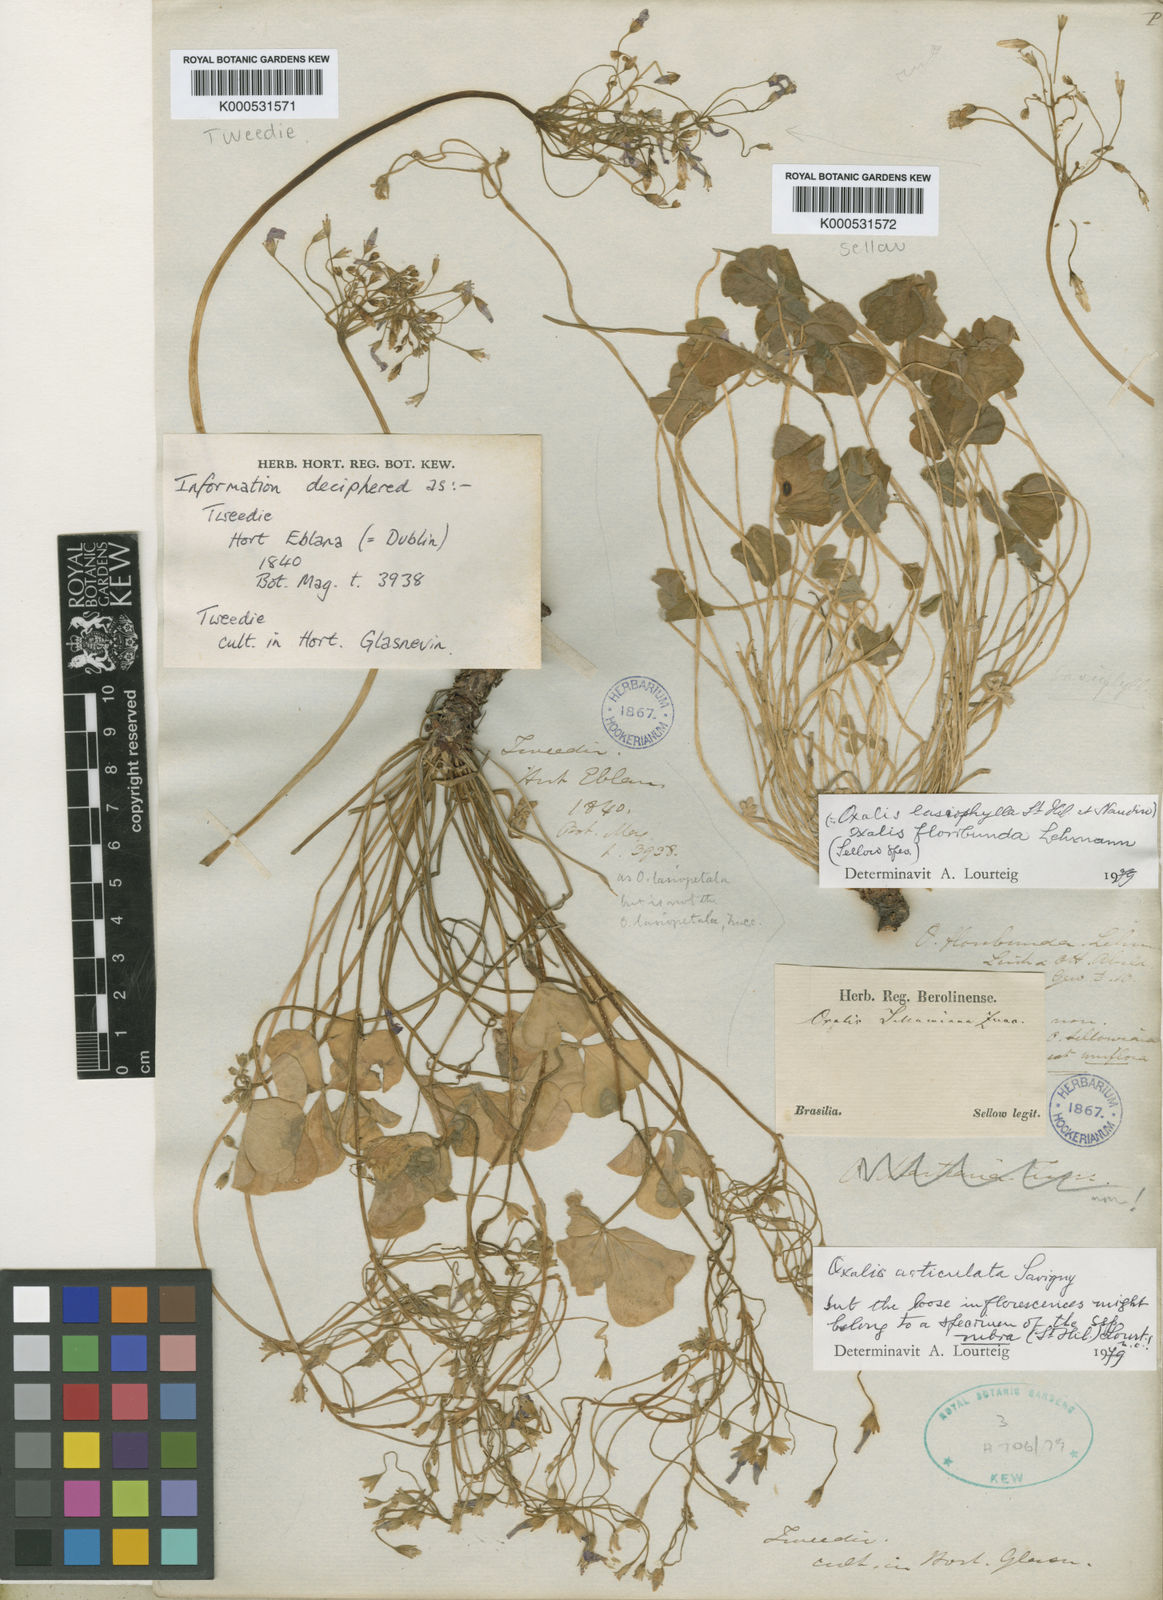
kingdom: Plantae
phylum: Tracheophyta
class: Magnoliopsida
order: Oxalidales
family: Oxalidaceae
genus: Oxalis
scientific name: Oxalis floribunda
